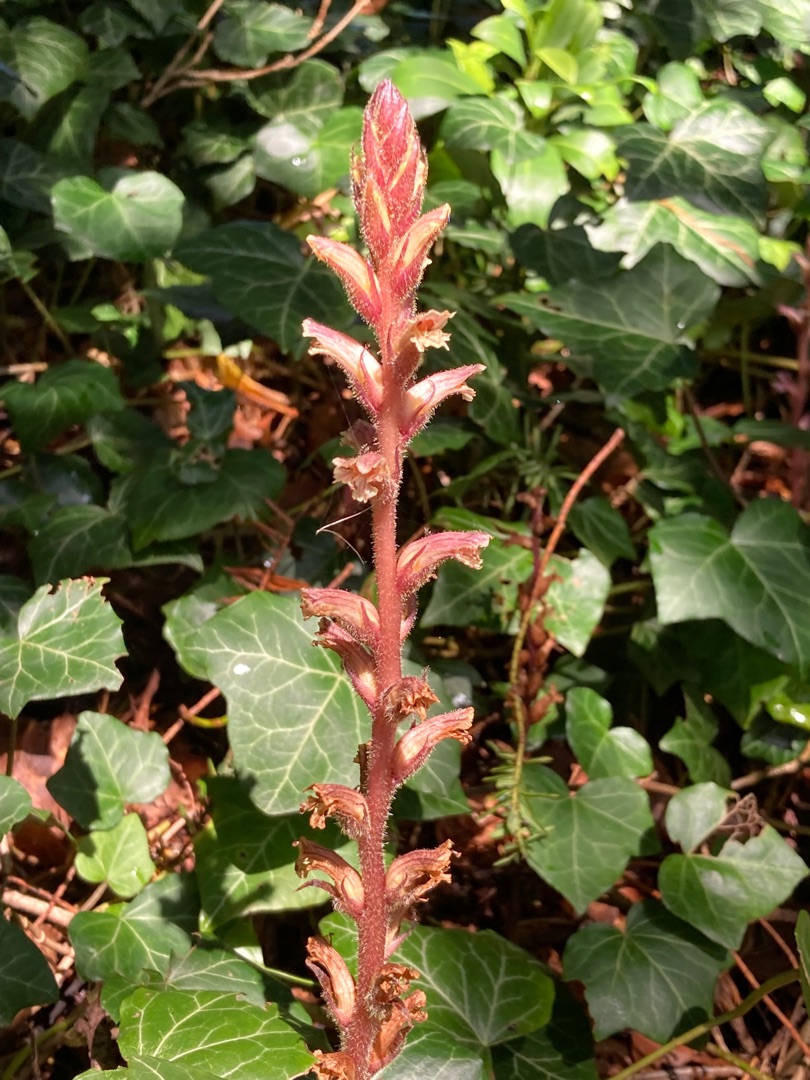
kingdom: Plantae
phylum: Tracheophyta
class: Magnoliopsida
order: Lamiales
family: Orobanchaceae
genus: Orobanche
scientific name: Orobanche hederae
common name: Vedbend-gyvelkvæler
